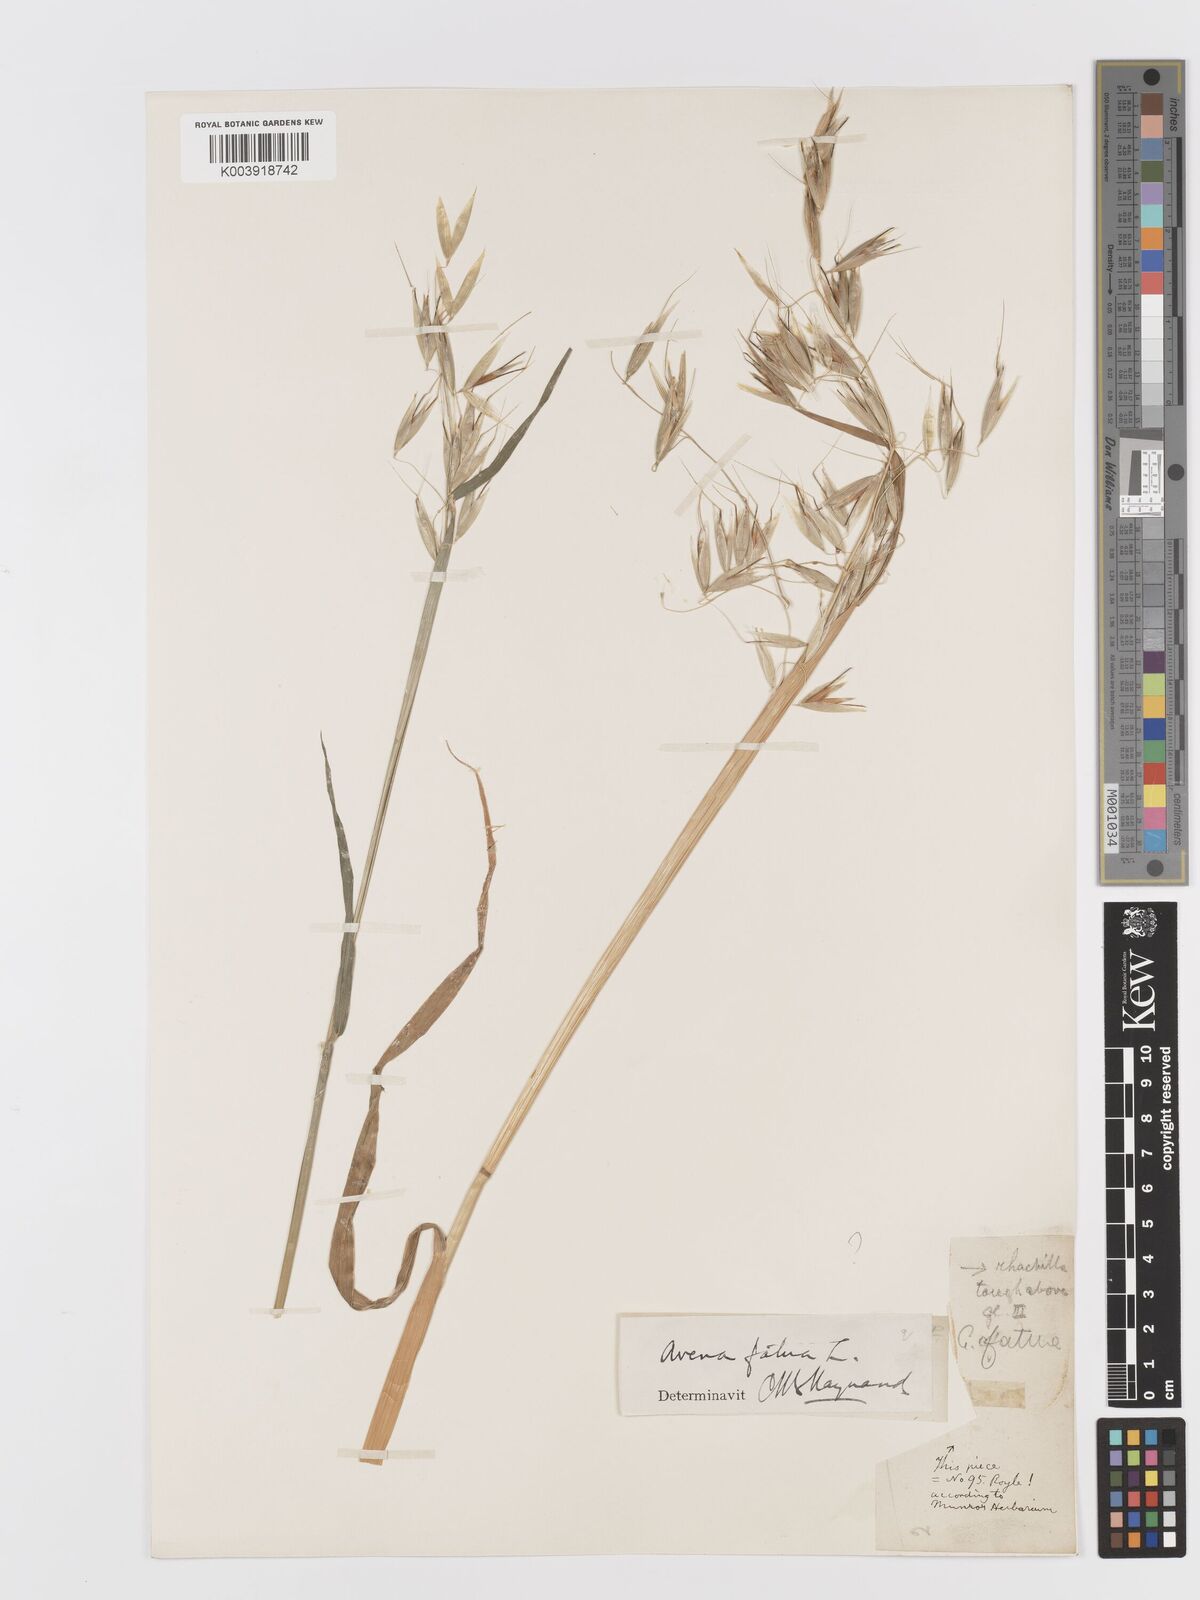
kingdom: Plantae
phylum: Tracheophyta
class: Liliopsida
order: Poales
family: Poaceae
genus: Avena
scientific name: Avena sterilis
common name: Animated oat
